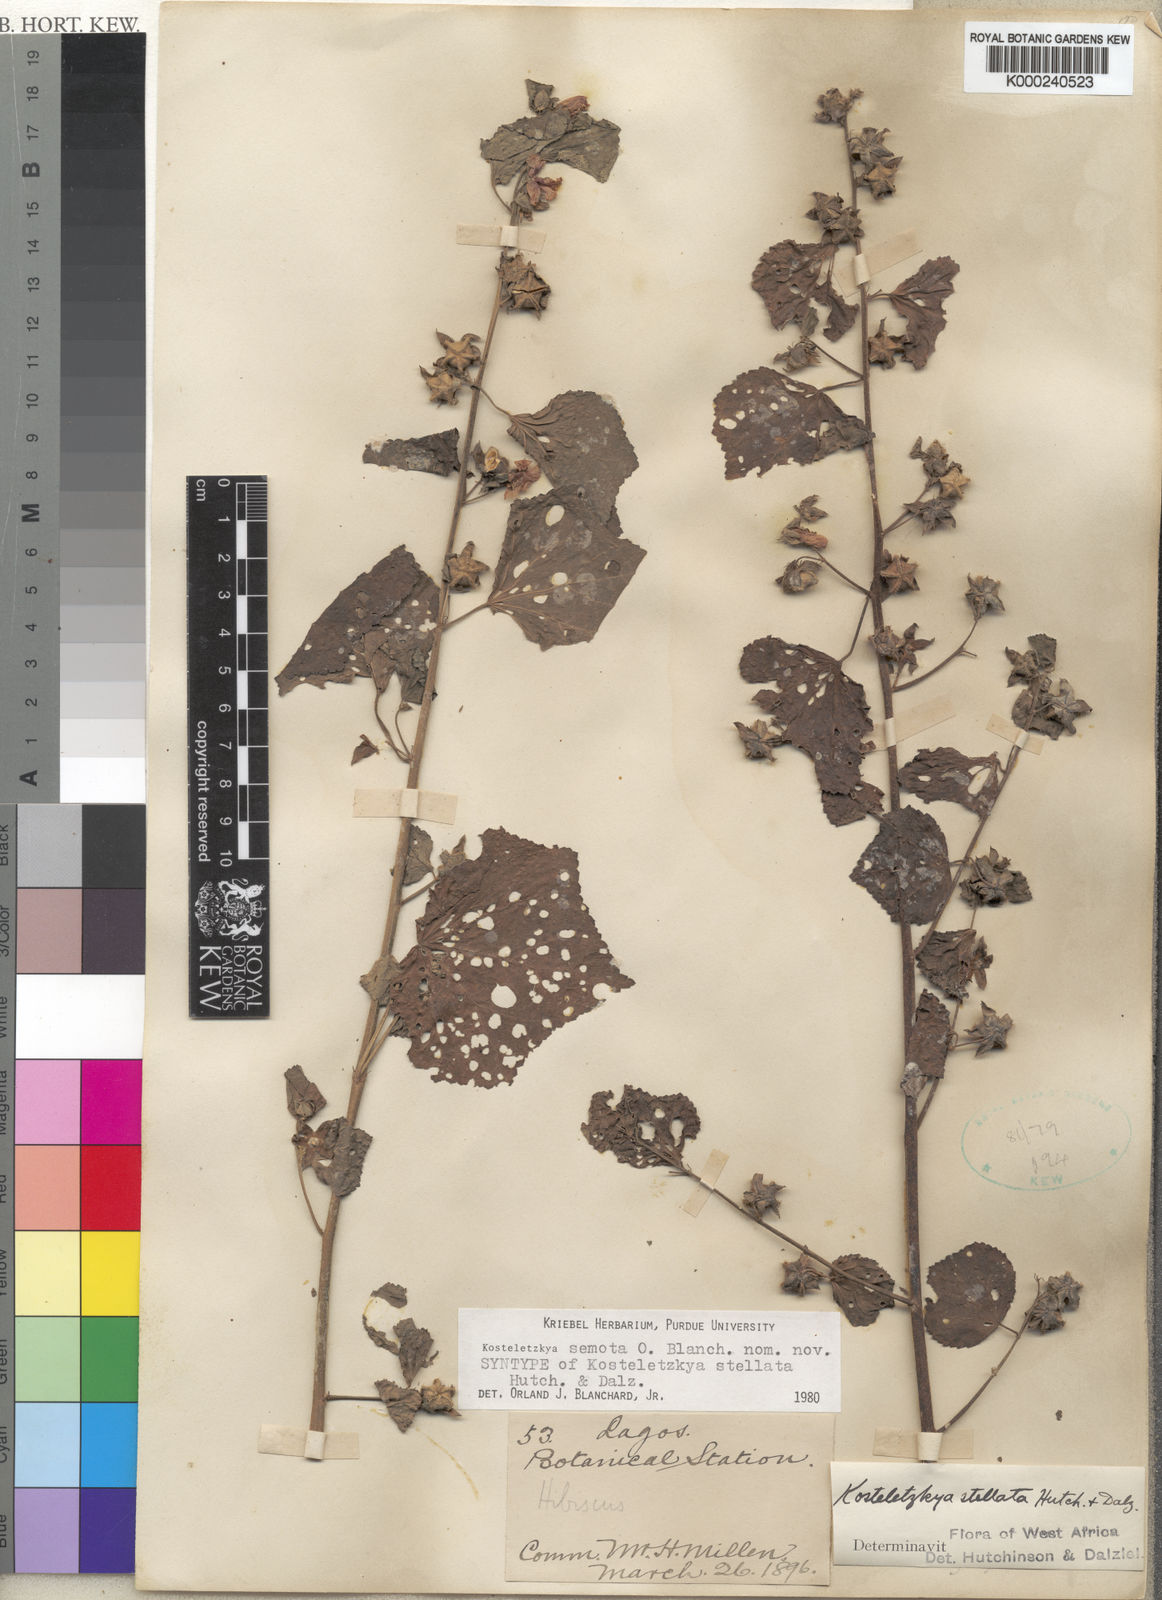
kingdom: Plantae
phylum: Tracheophyta
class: Magnoliopsida
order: Malvales
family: Malvaceae
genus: Kosteletzkya
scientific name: Kosteletzkya semota
